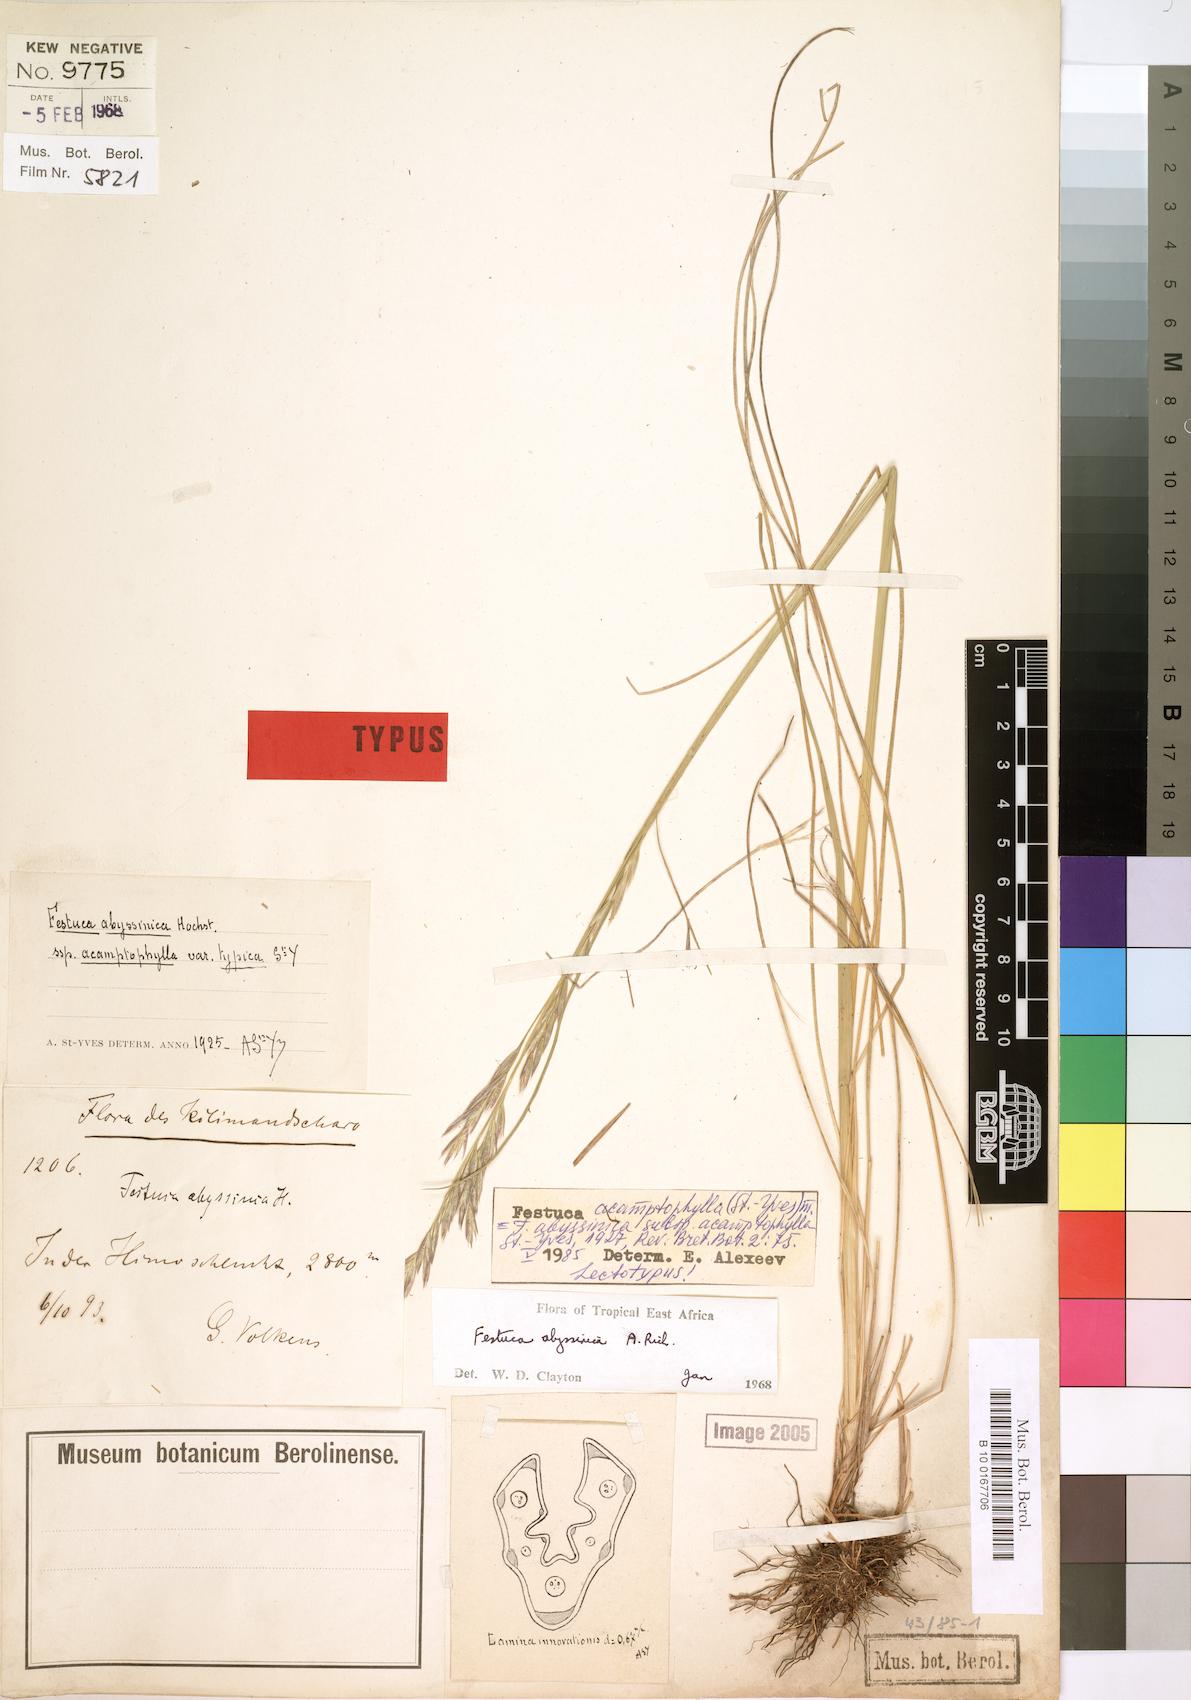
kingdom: Plantae
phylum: Tracheophyta
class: Liliopsida
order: Poales
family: Poaceae
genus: Festuca
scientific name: Festuca acamptophylla
